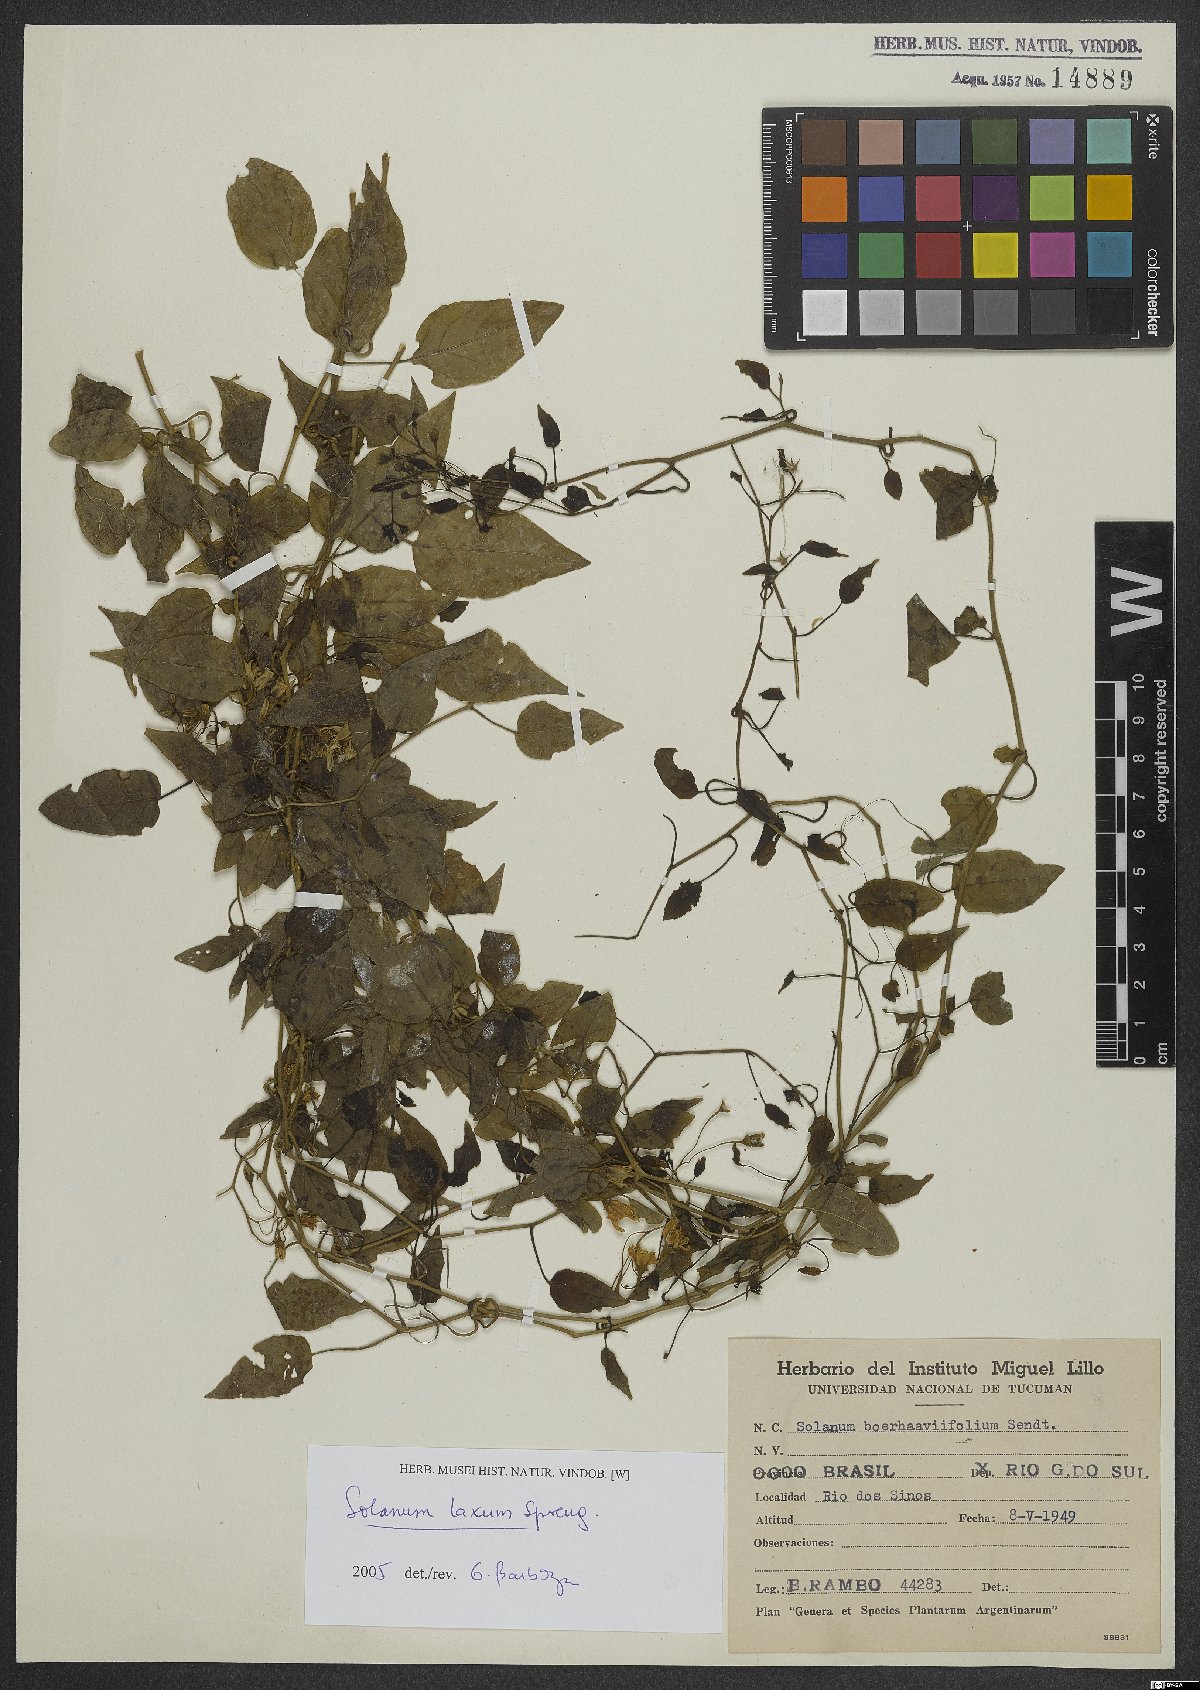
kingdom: Plantae
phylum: Tracheophyta
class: Magnoliopsida
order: Solanales
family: Solanaceae
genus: Solanum
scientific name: Solanum laxum
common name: Nightshade
